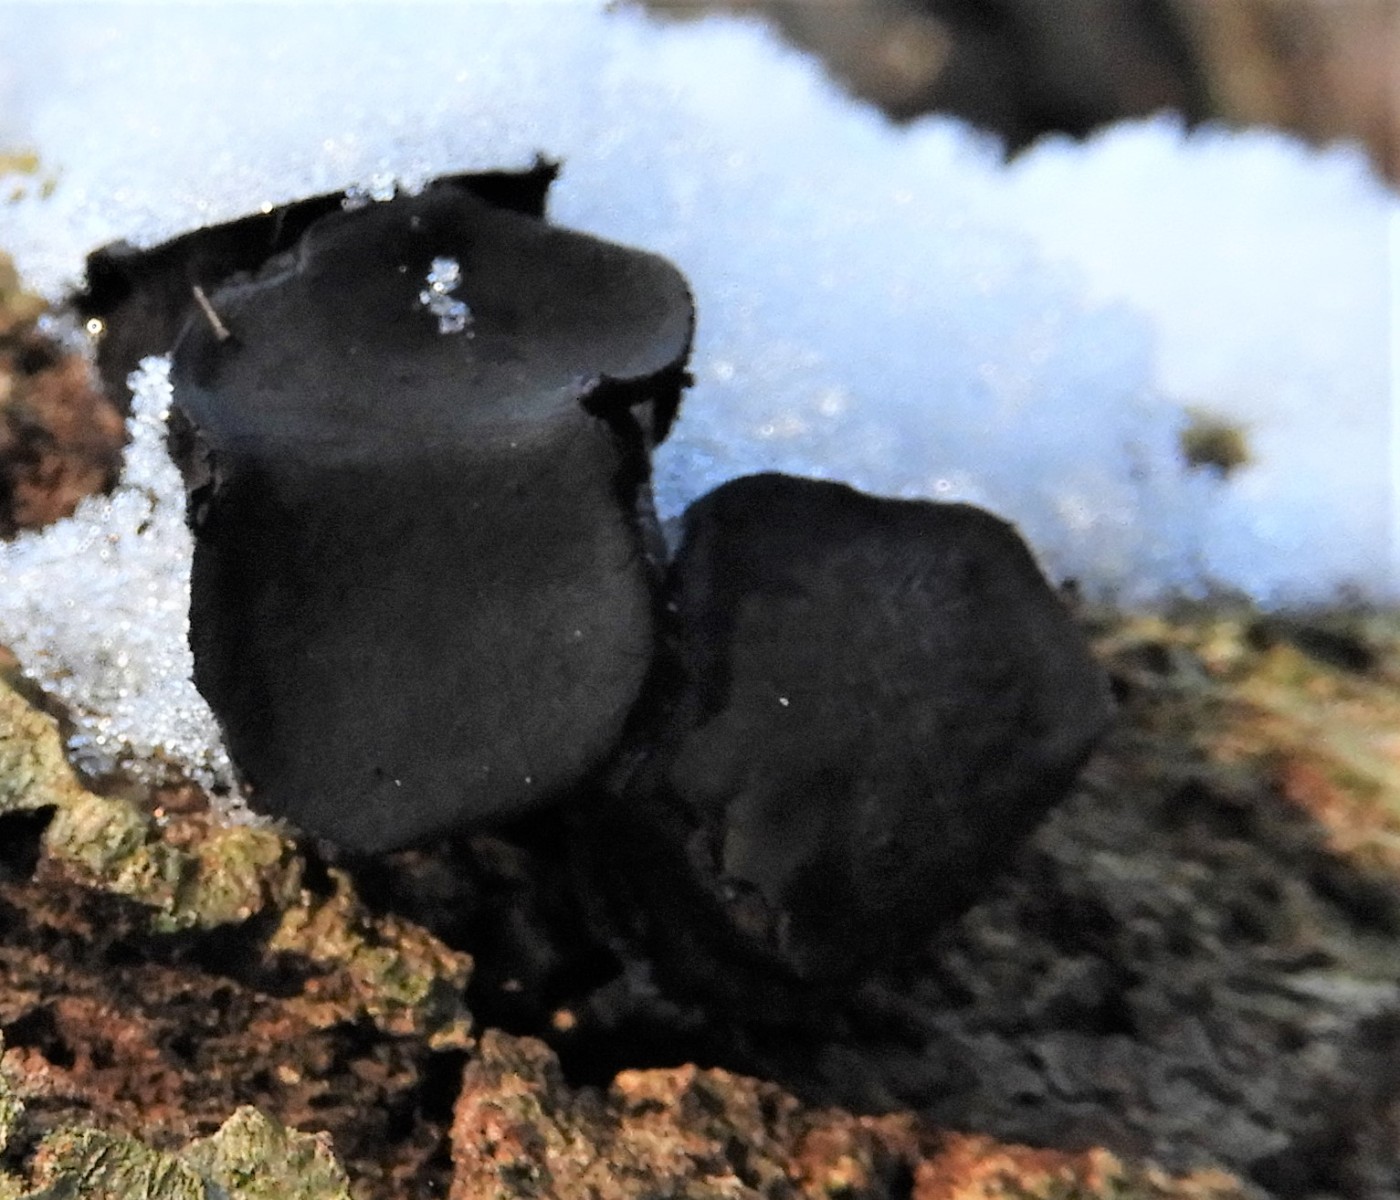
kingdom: Fungi
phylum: Ascomycota
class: Leotiomycetes
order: Phacidiales
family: Phacidiaceae
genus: Bulgaria
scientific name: Bulgaria inquinans
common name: afsmittende topsvamp
